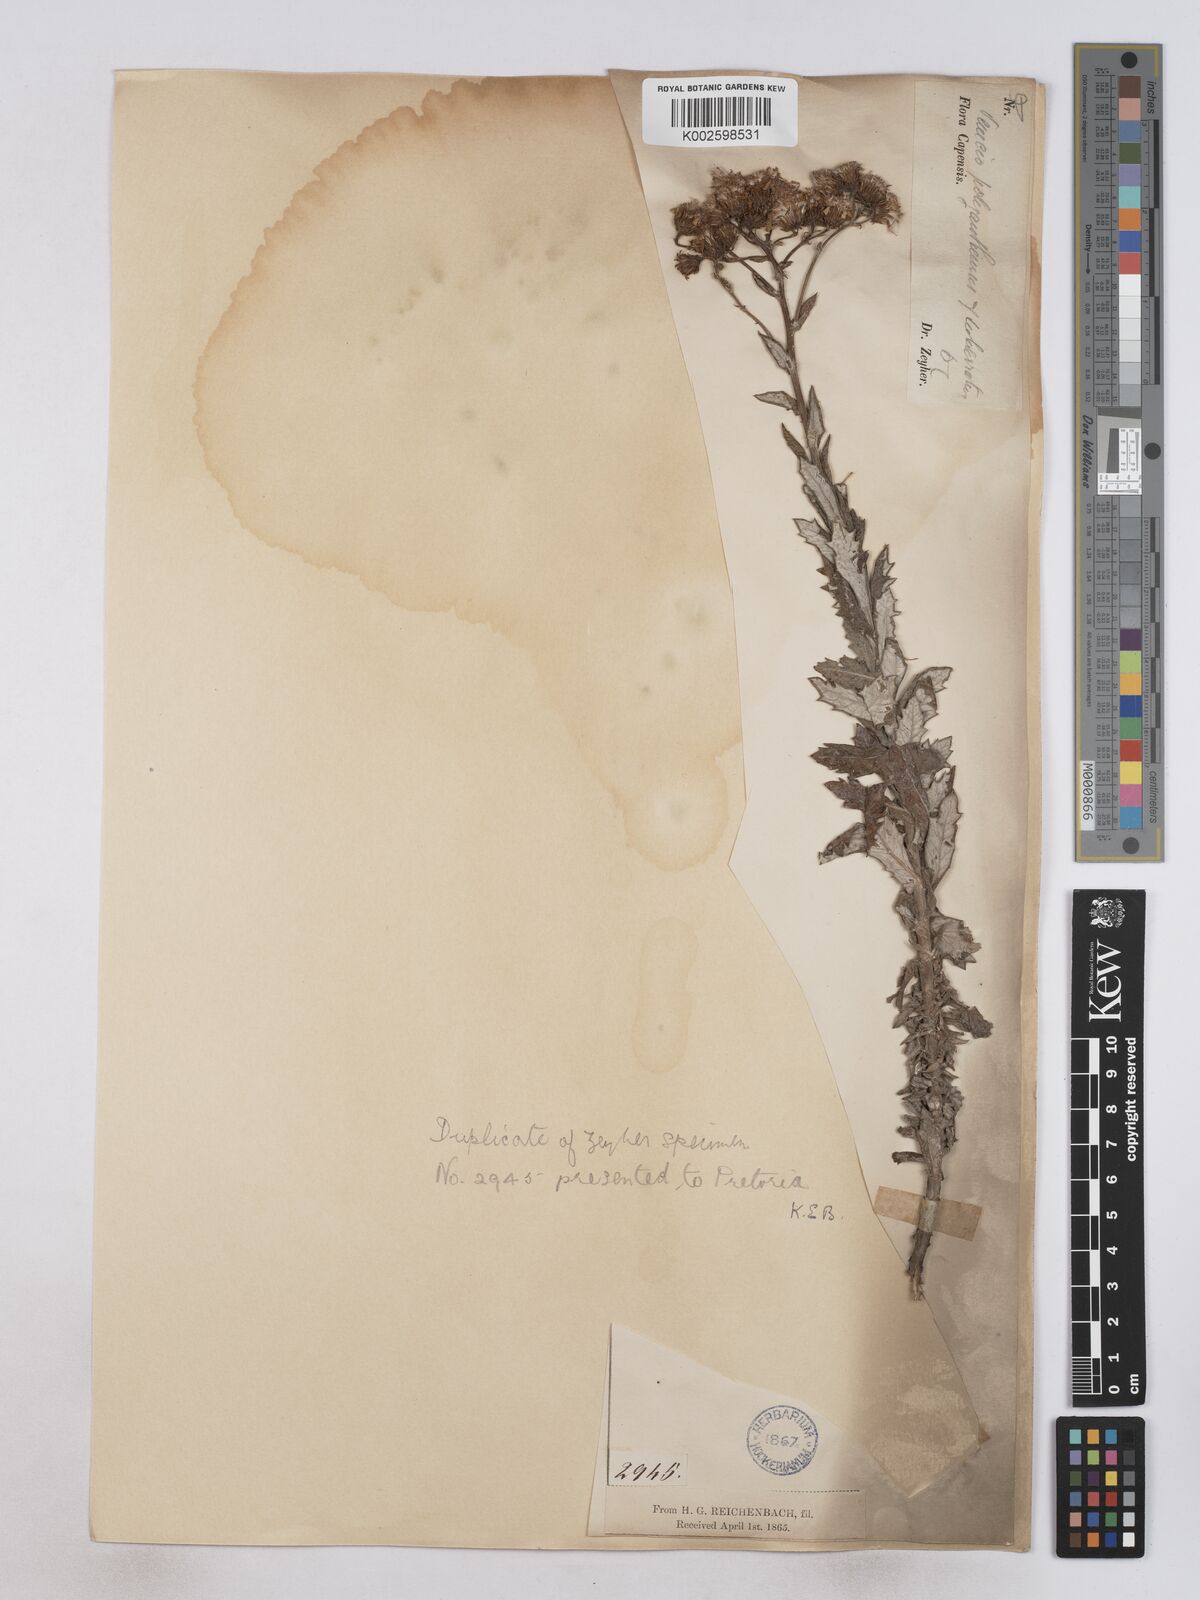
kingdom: Plantae
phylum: Tracheophyta
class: Magnoliopsida
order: Asterales
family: Asteraceae
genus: Senecio
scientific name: Senecio ilicifolius
